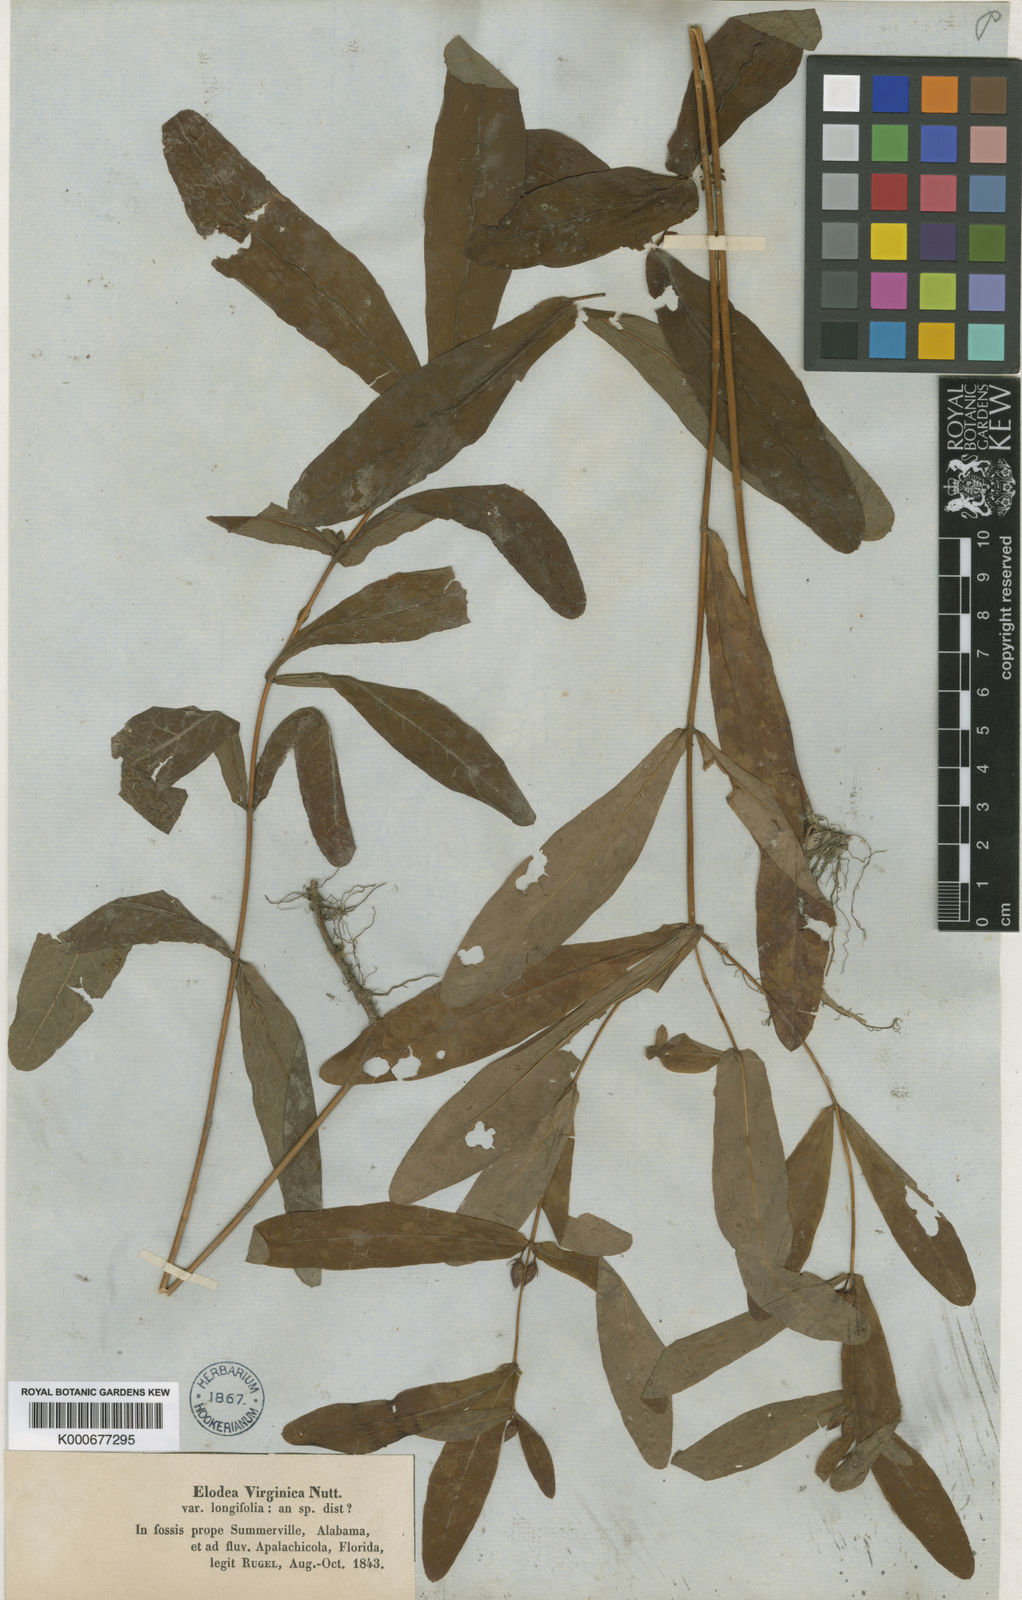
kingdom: Plantae
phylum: Tracheophyta
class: Magnoliopsida
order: Malpighiales
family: Hypericaceae
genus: Triadenum
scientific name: Triadenum tubulosum
